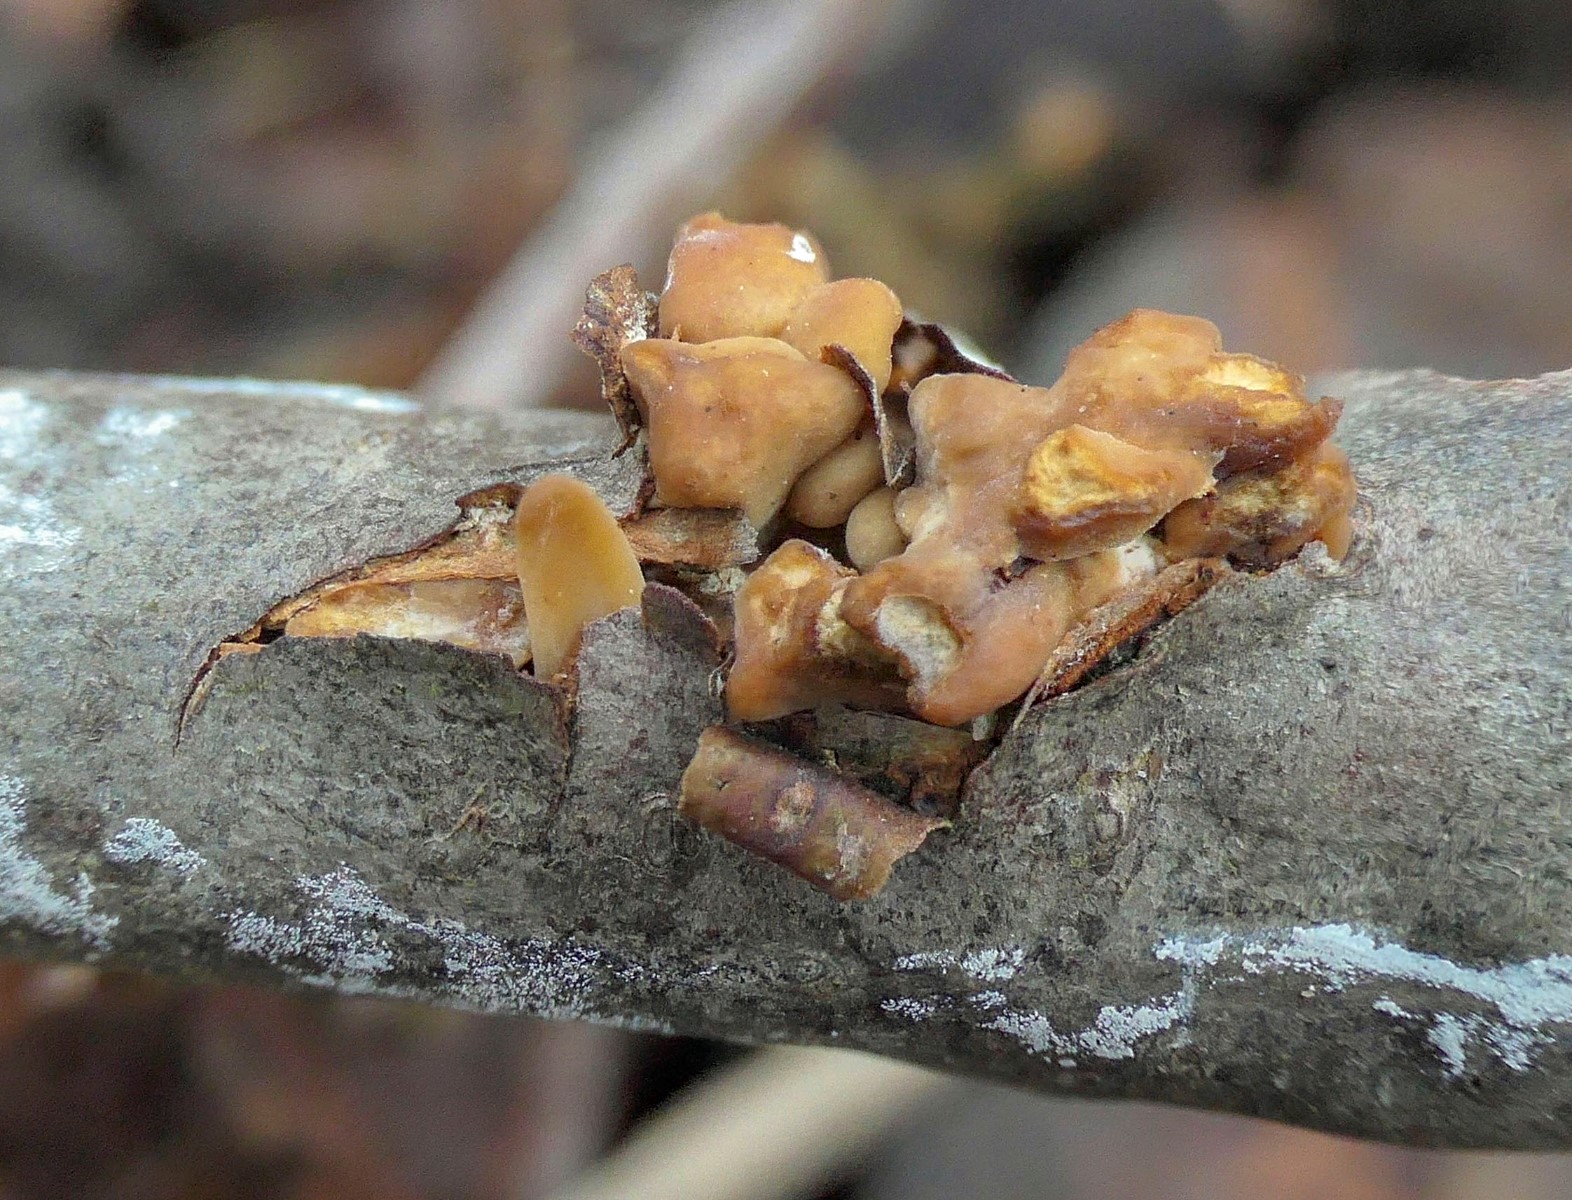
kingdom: Fungi
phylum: Basidiomycota
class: Agaricomycetes
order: Agaricales
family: Typhulaceae
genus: Typhula
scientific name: Typhula contorta
